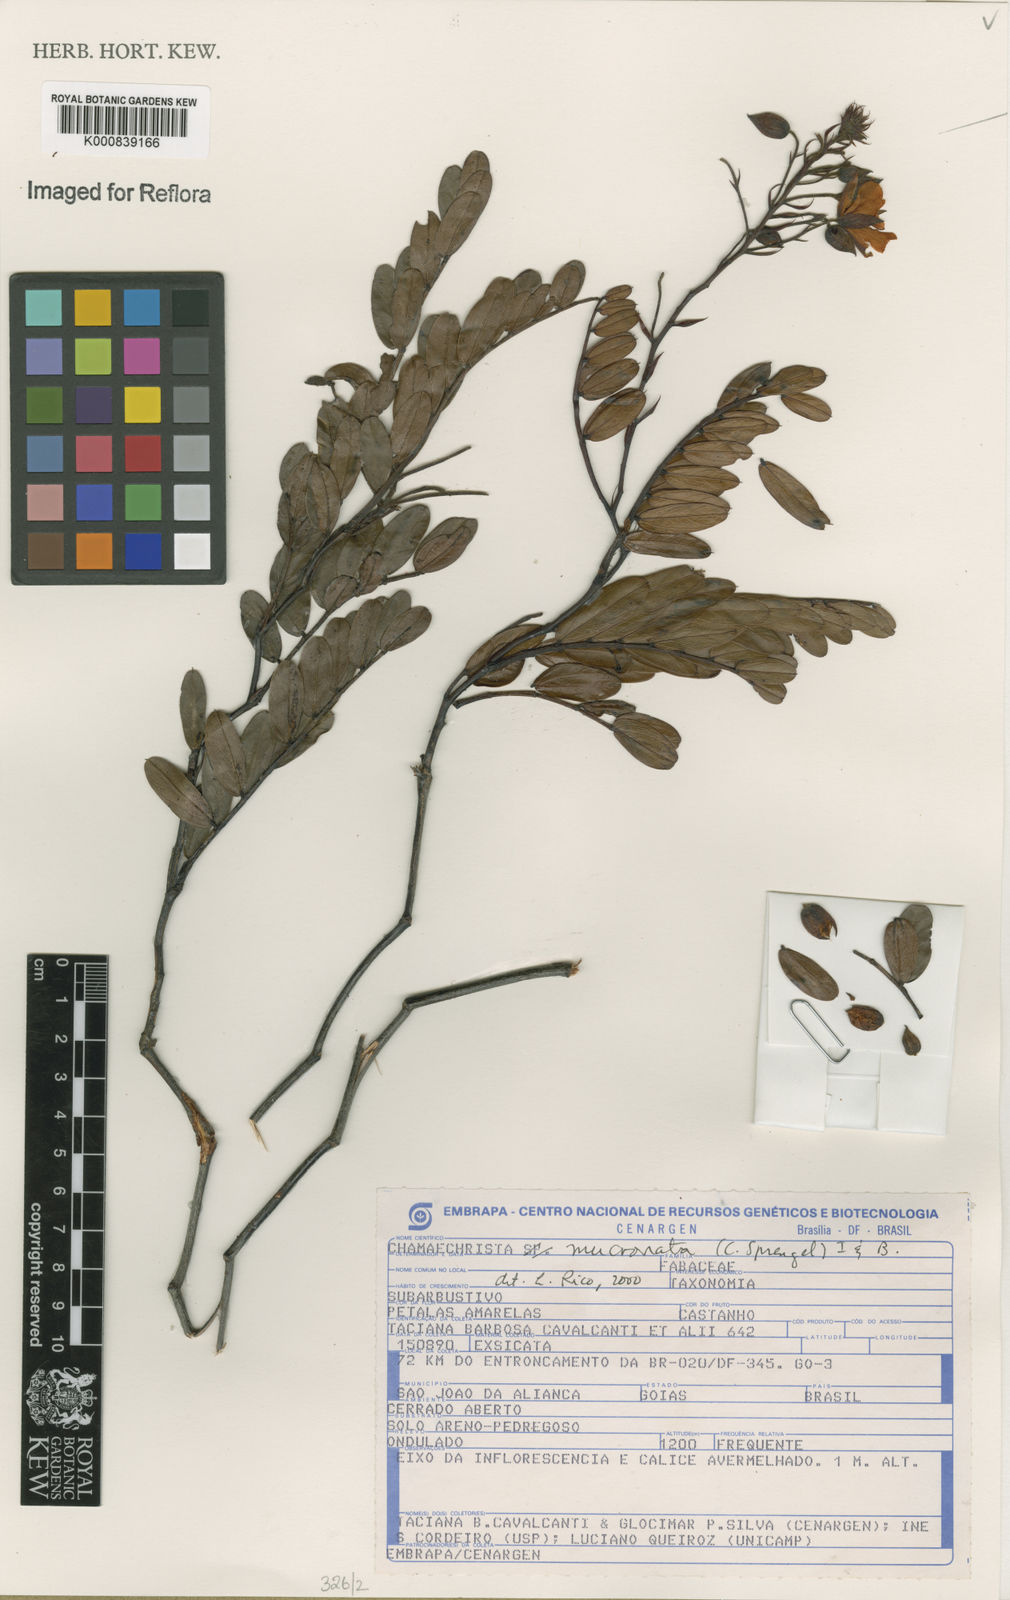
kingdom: Plantae
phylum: Tracheophyta
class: Magnoliopsida
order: Fabales
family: Fabaceae
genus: Chamaecrista
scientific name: Chamaecrista mucronata
